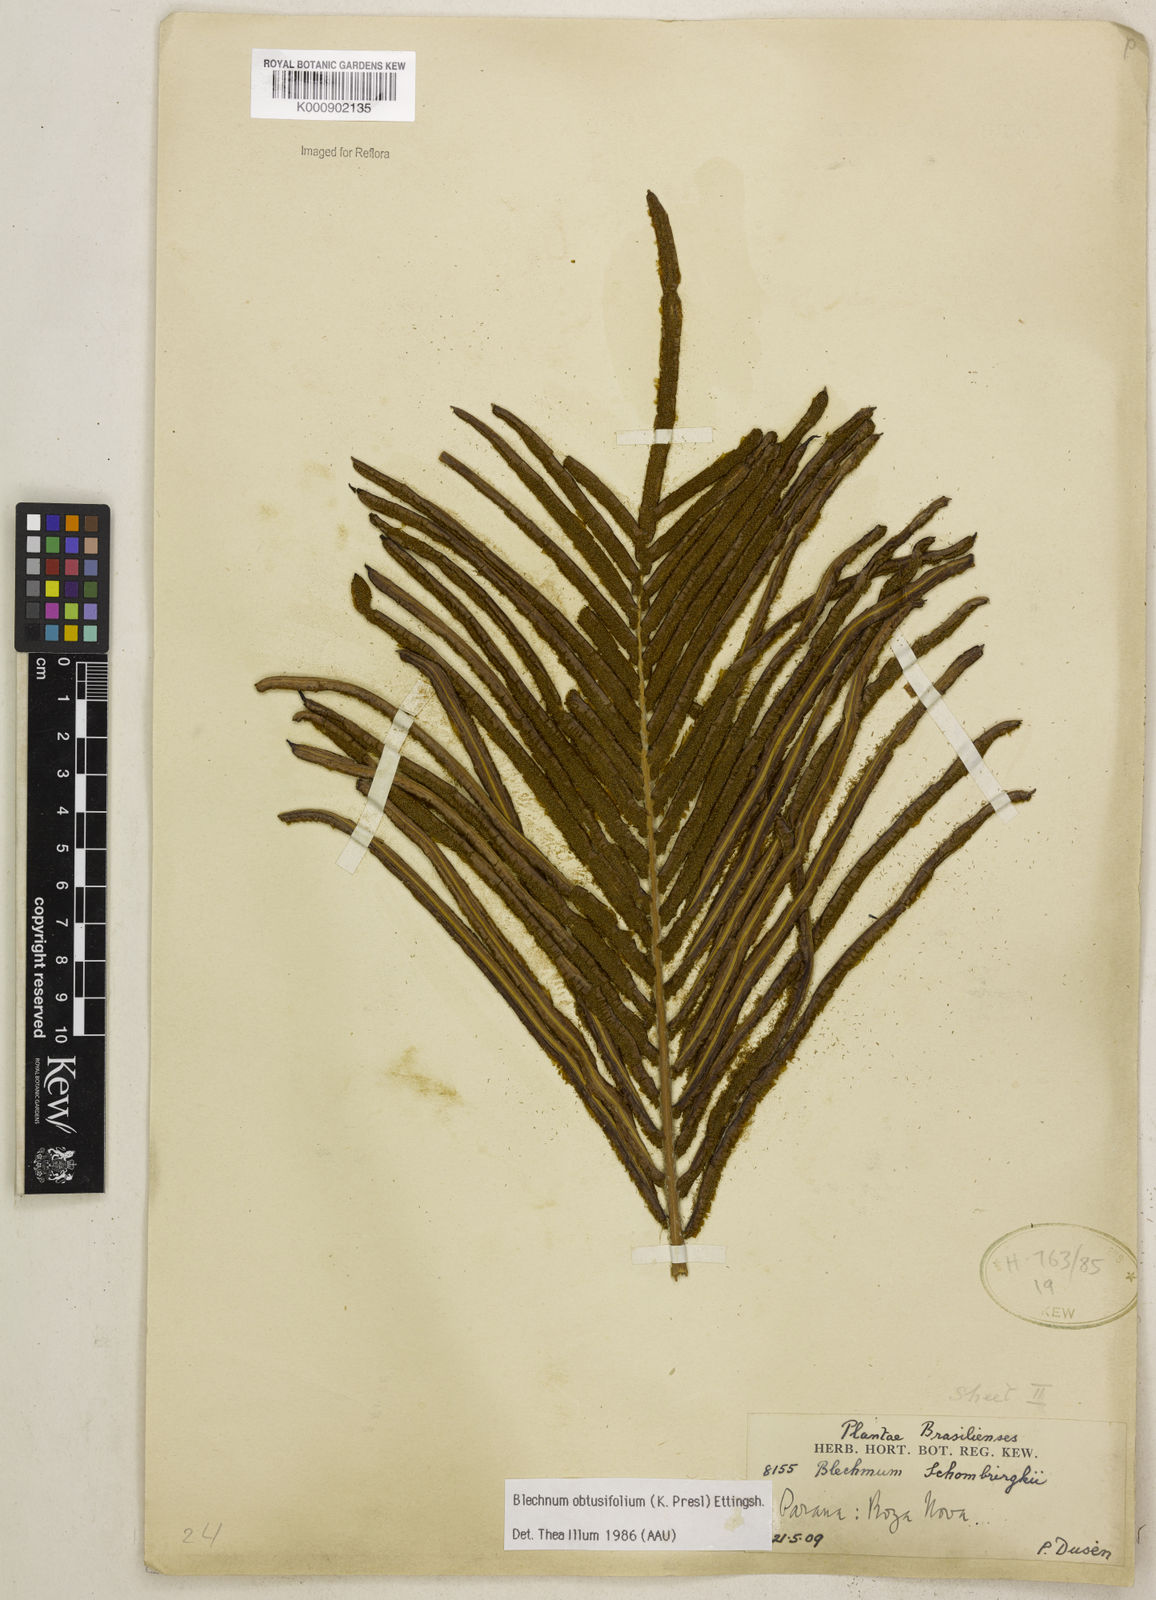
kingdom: Plantae
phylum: Tracheophyta
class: Polypodiopsida
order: Polypodiales
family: Blechnaceae
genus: Lomariocycas
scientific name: Lomariocycas obtusifolia
